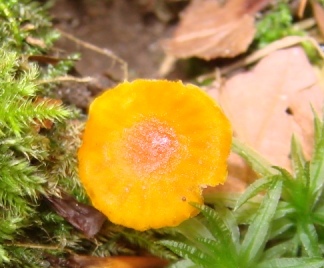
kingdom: Fungi
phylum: Basidiomycota
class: Agaricomycetes
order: Agaricales
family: Hygrophoraceae
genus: Hygrocybe
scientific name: Hygrocybe insipida
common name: liden vokshat
